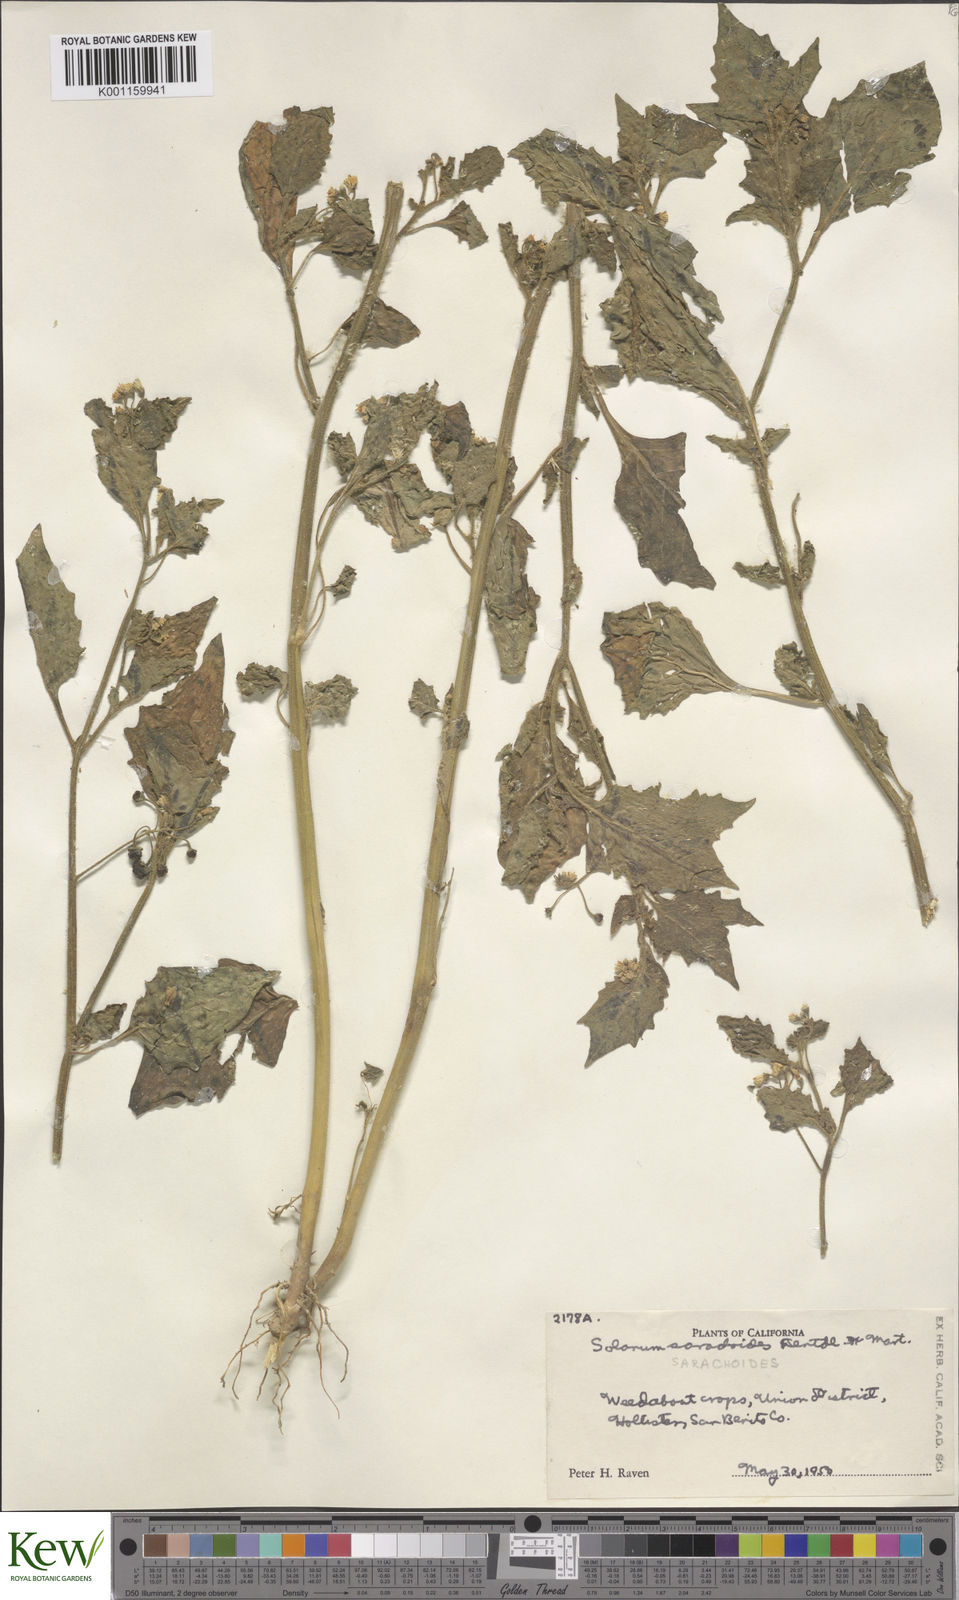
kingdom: Plantae
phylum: Tracheophyta
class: Magnoliopsida
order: Solanales
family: Solanaceae
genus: Solanum
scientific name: Solanum nigrum
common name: Black nightshade
